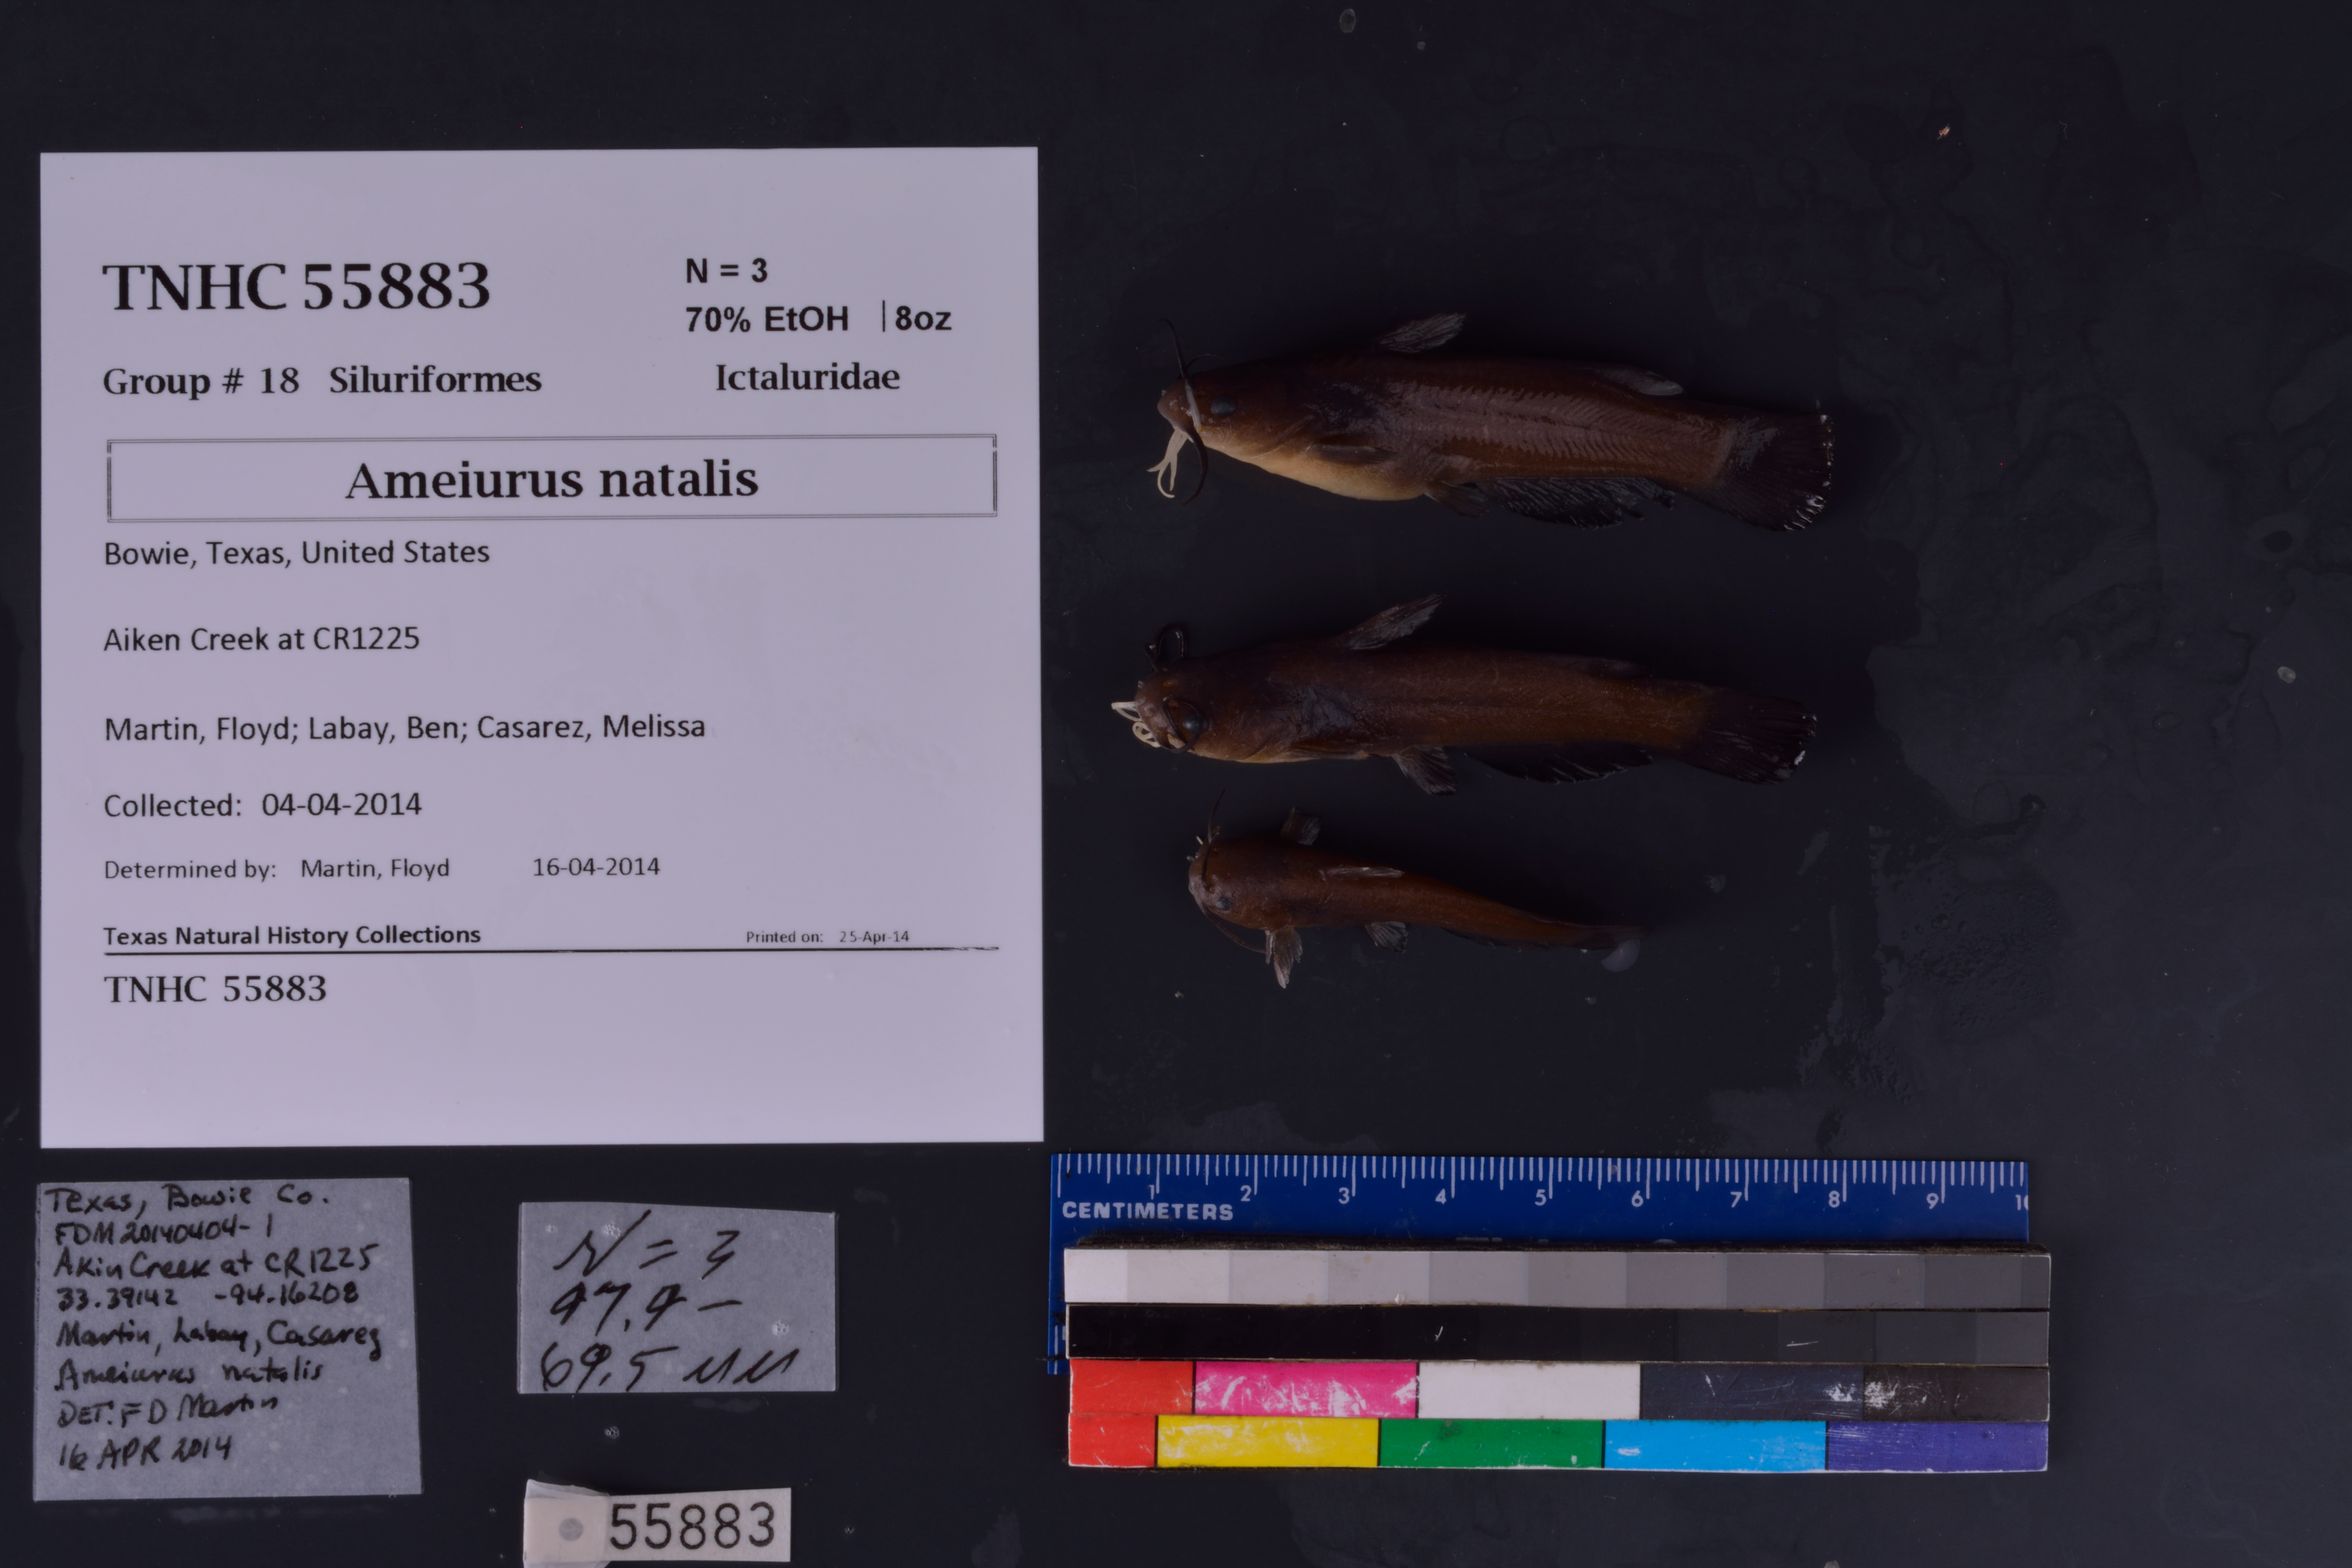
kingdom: Animalia
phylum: Chordata
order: Siluriformes
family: Ictaluridae
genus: Ameiurus
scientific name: Ameiurus natalis
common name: Yellow bullhead
